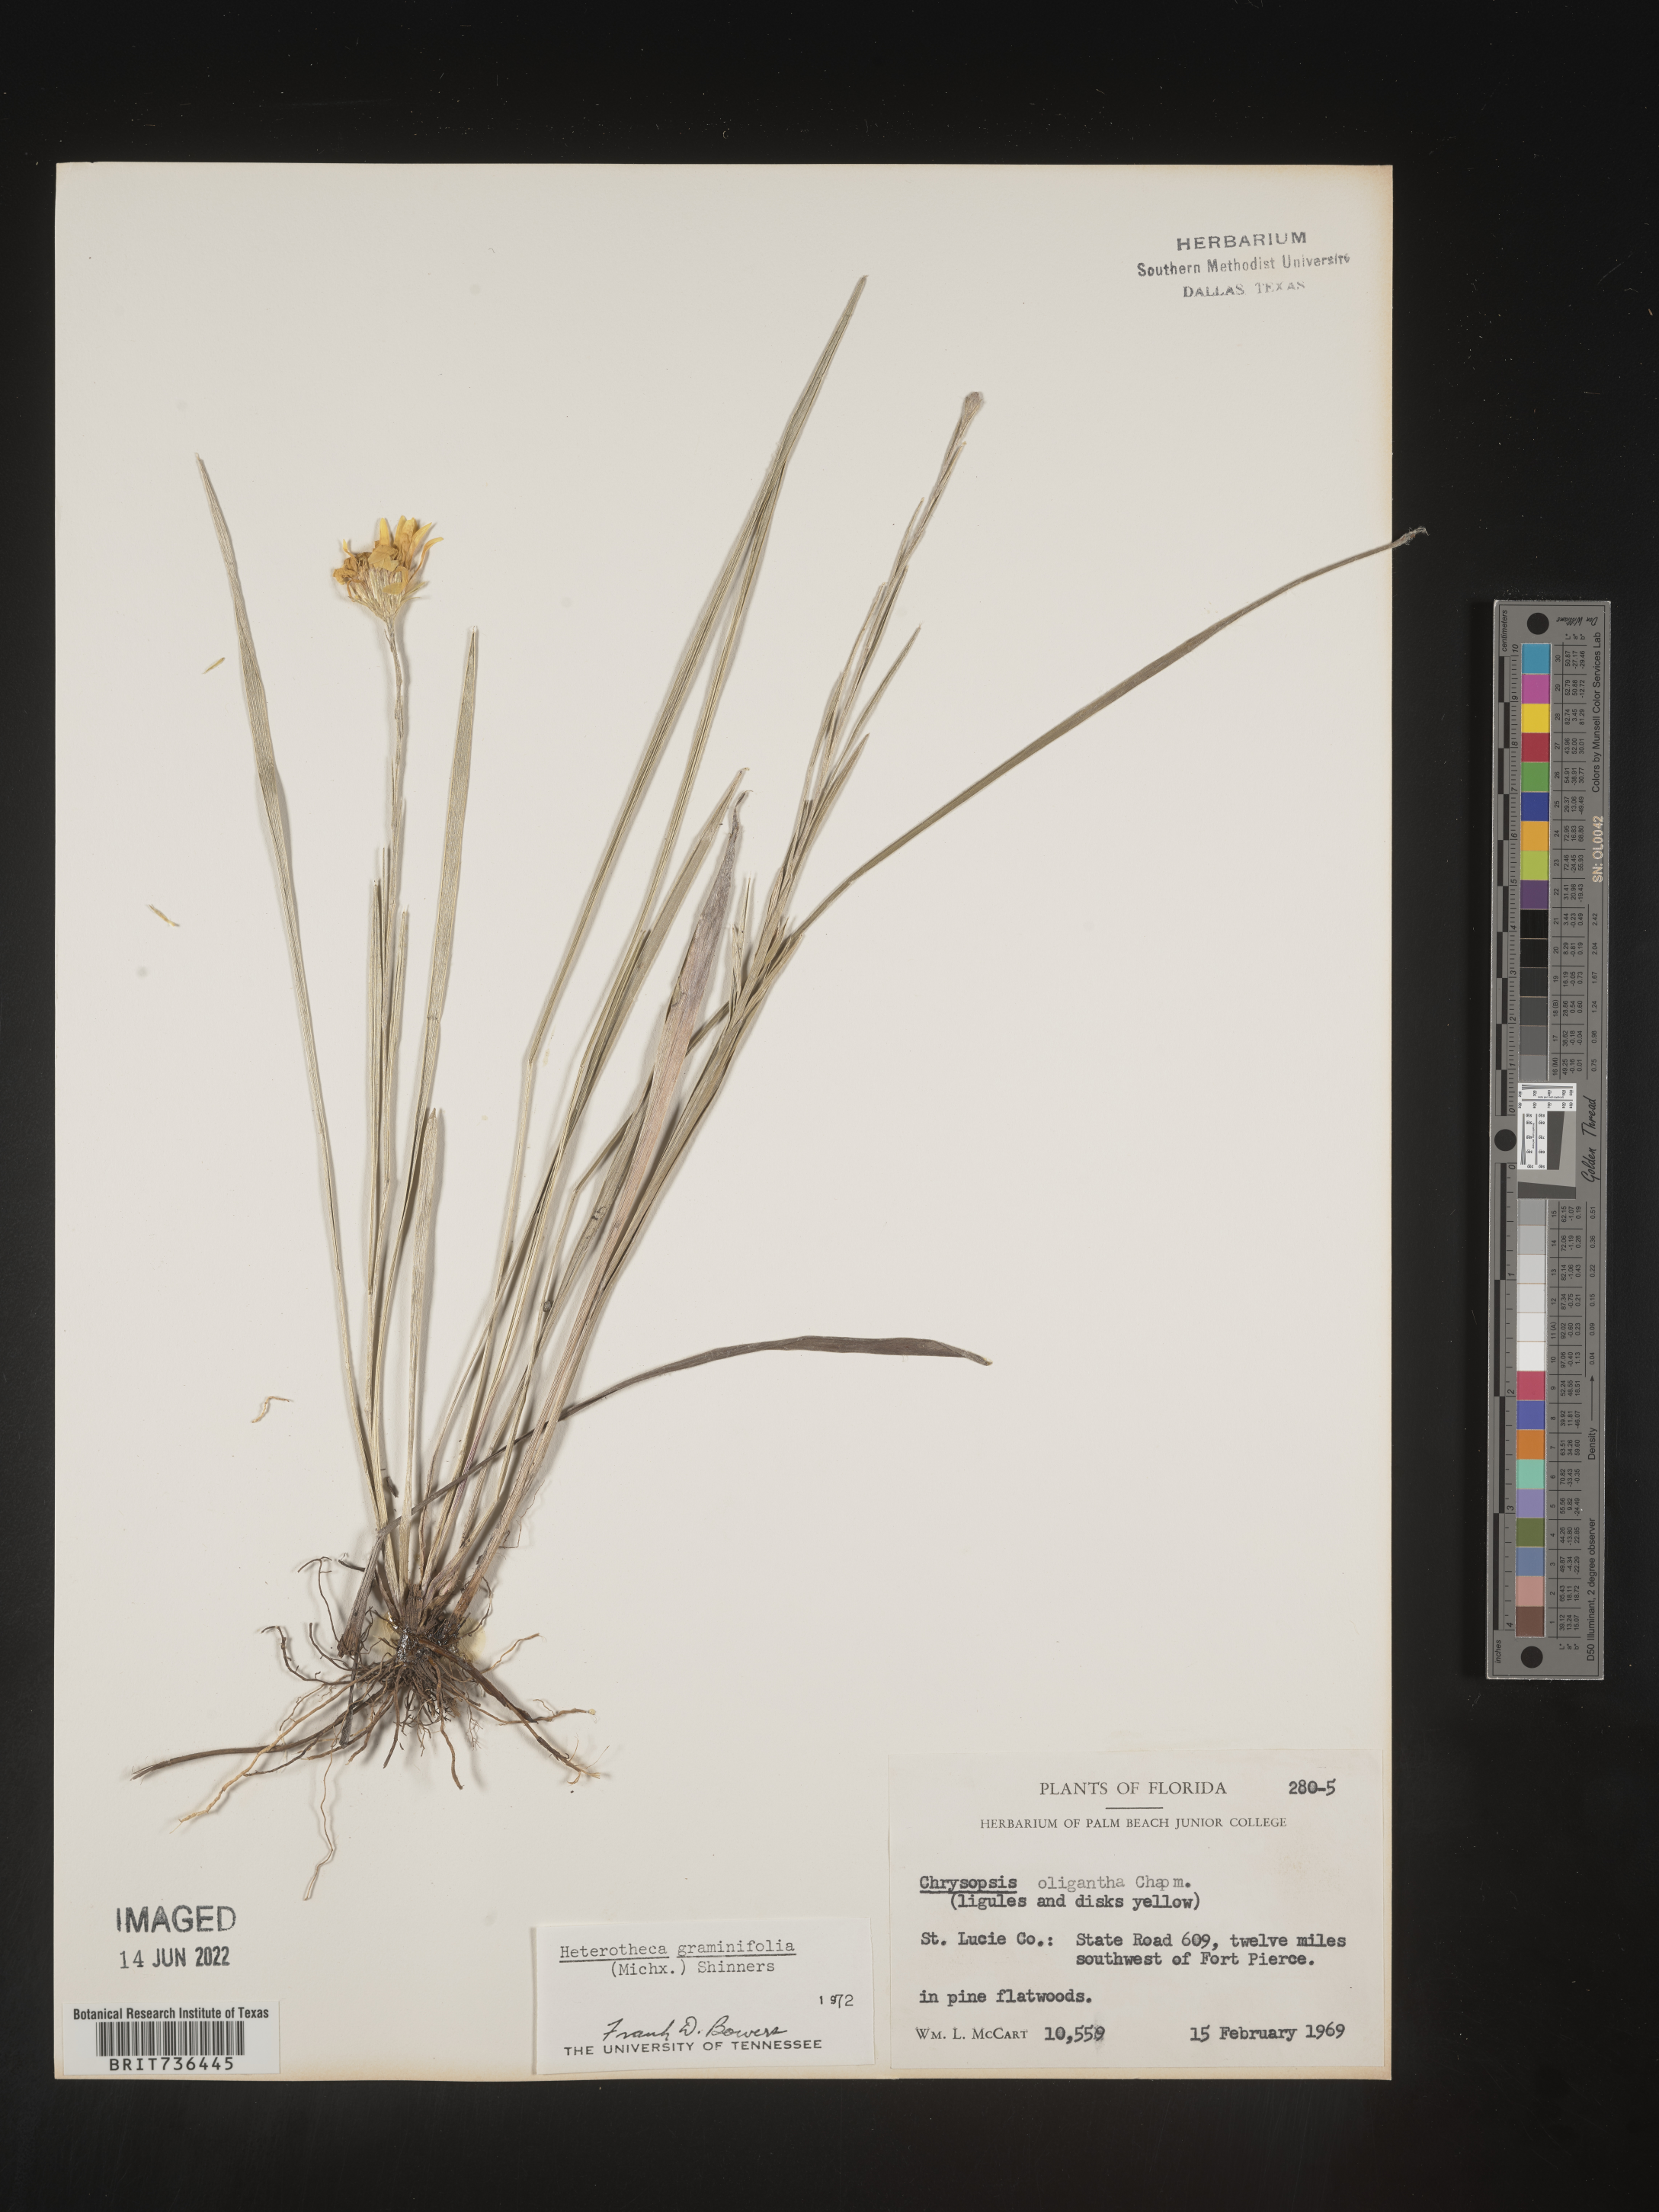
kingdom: Plantae
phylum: Tracheophyta
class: Magnoliopsida
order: Asterales
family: Asteraceae
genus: Pityopsis
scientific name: Pityopsis tracyi
